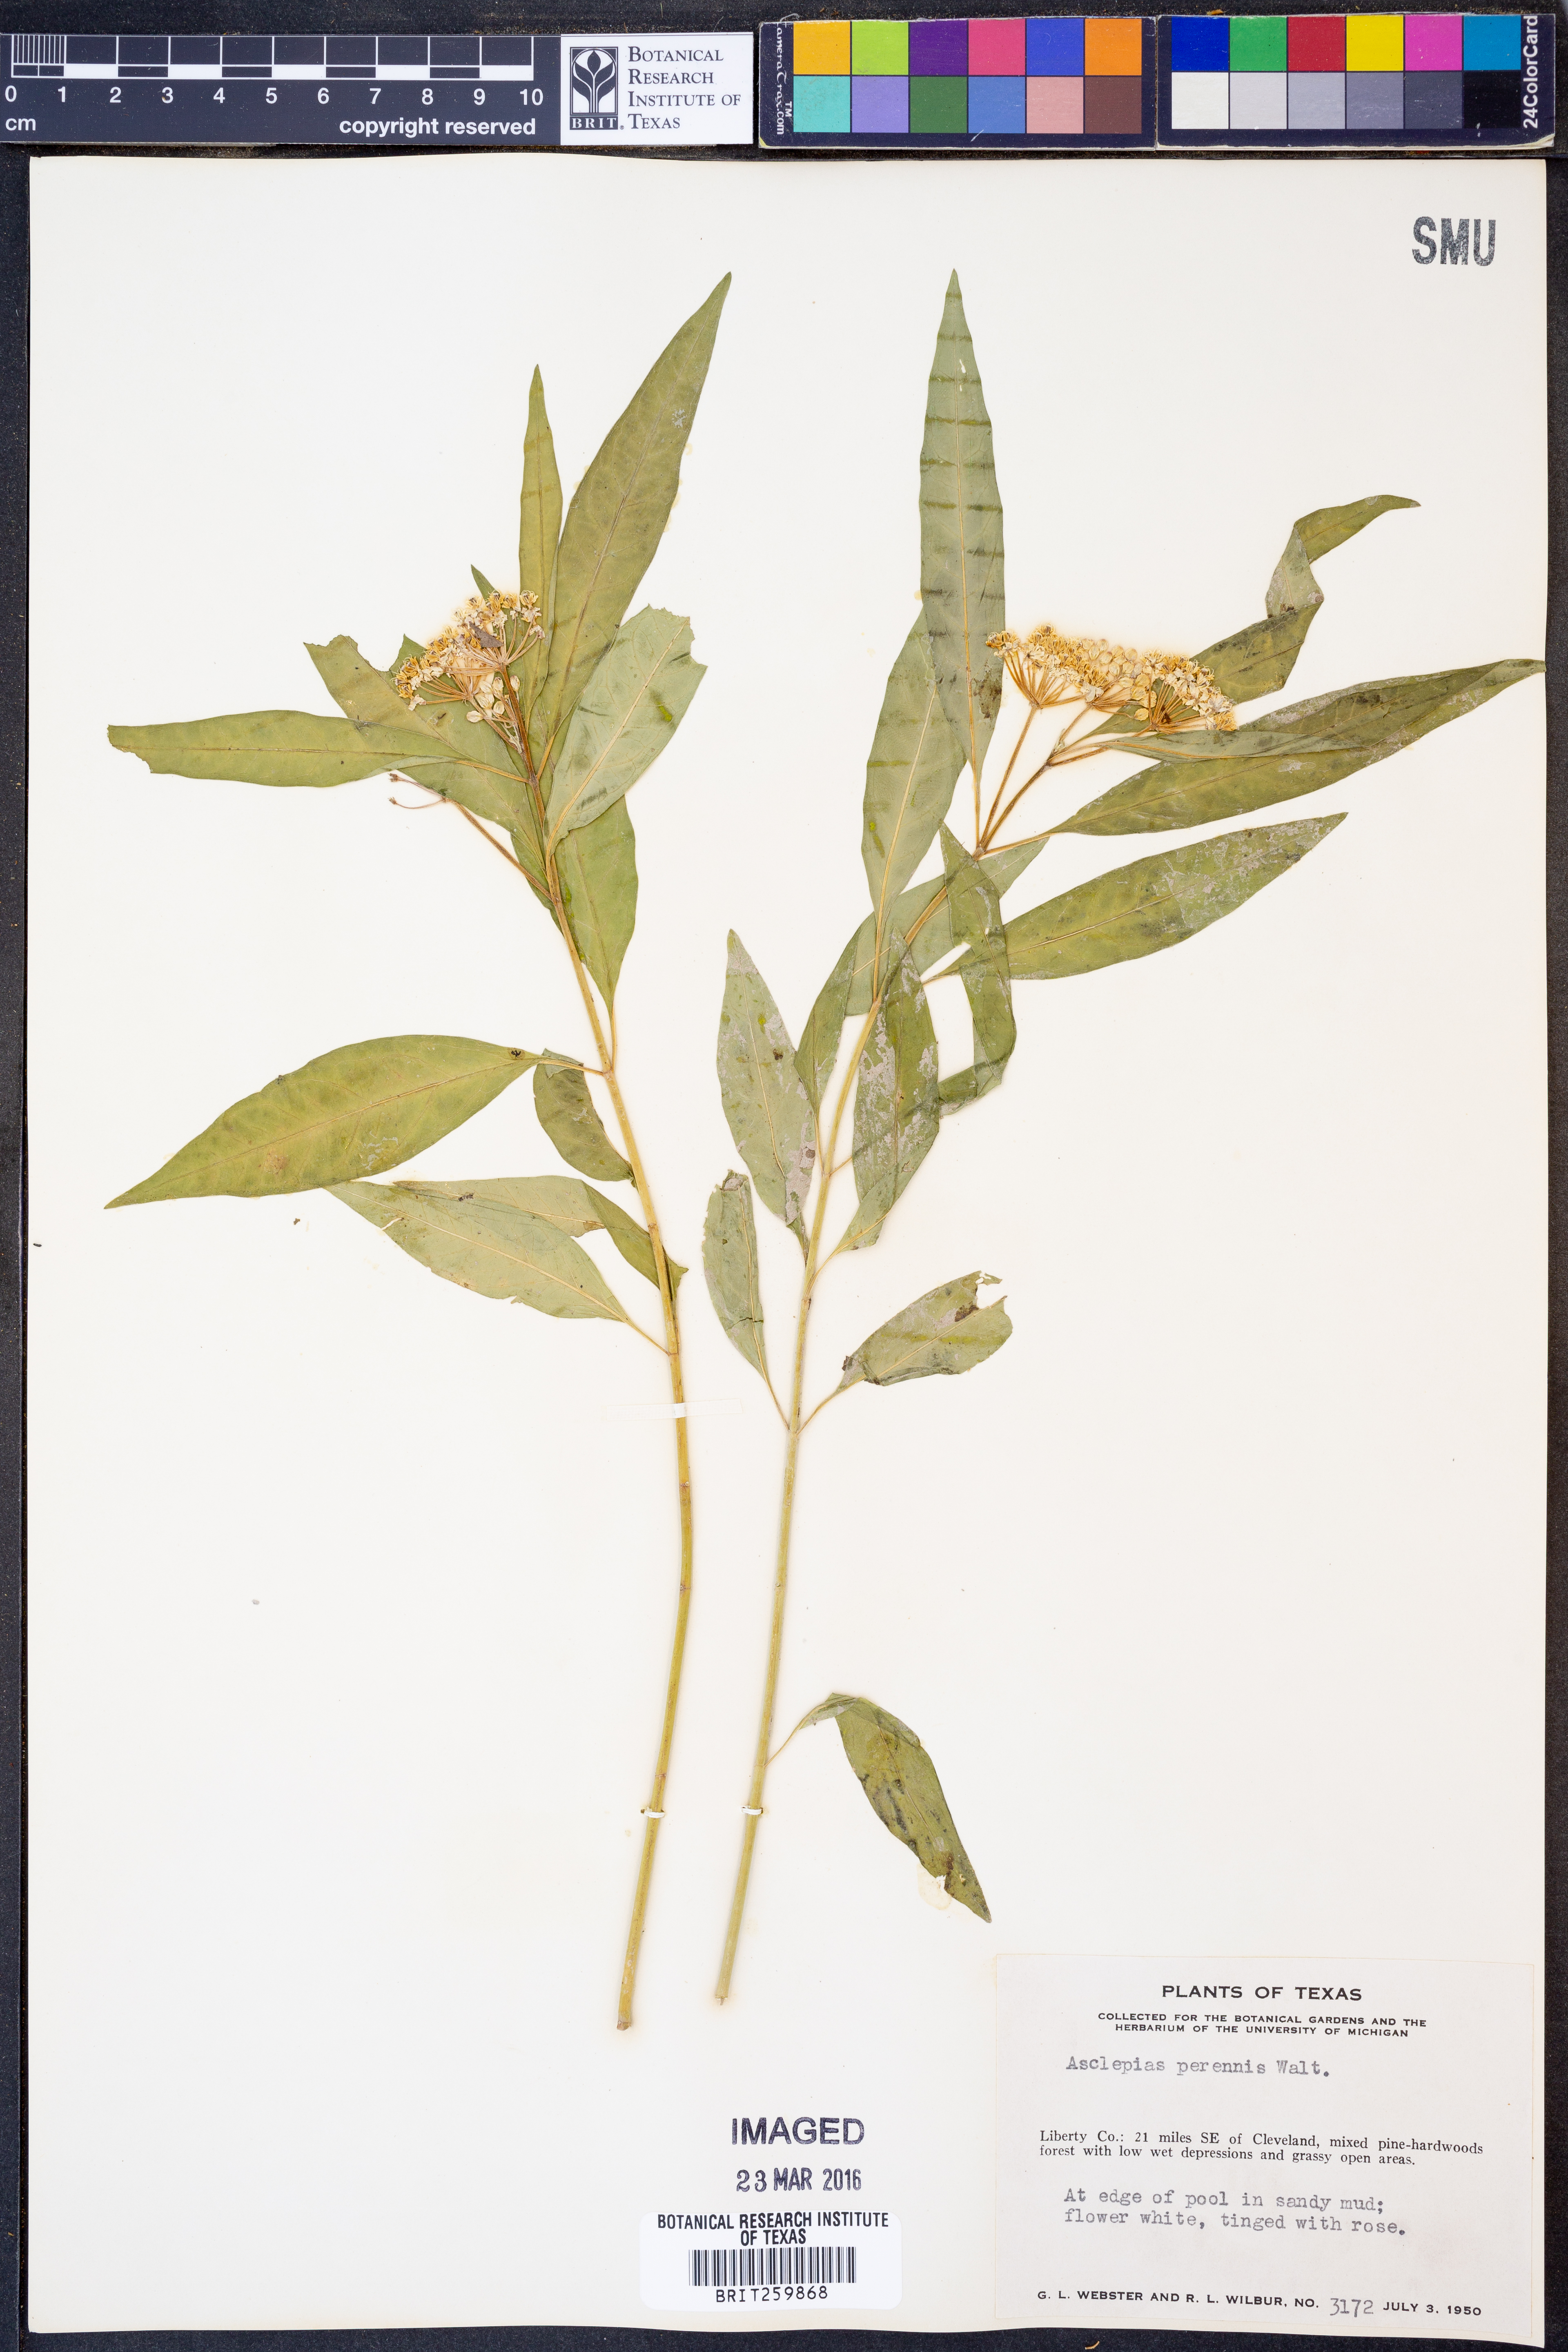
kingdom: Plantae
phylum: Tracheophyta
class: Magnoliopsida
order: Gentianales
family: Apocynaceae
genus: Asclepias
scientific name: Asclepias perennis
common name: Smooth-seed milkweed
